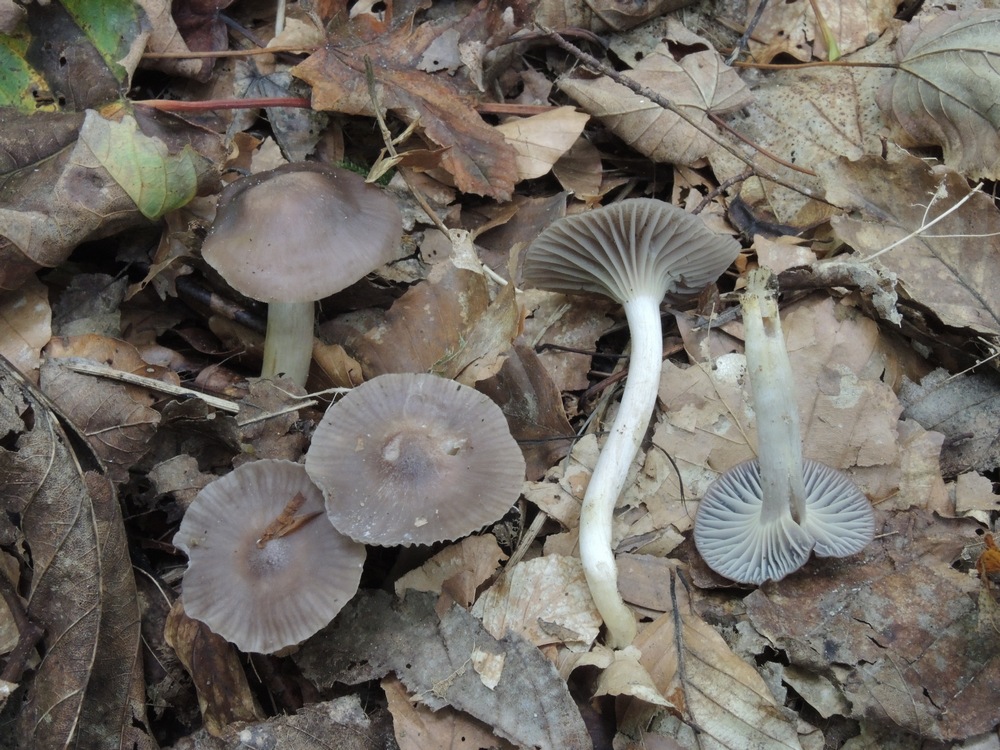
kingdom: Fungi
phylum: Basidiomycota
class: Agaricomycetes
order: Agaricales
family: Hygrophoraceae
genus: Cuphophyllus
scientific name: Cuphophyllus flavipes
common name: gulfodet vokshat
